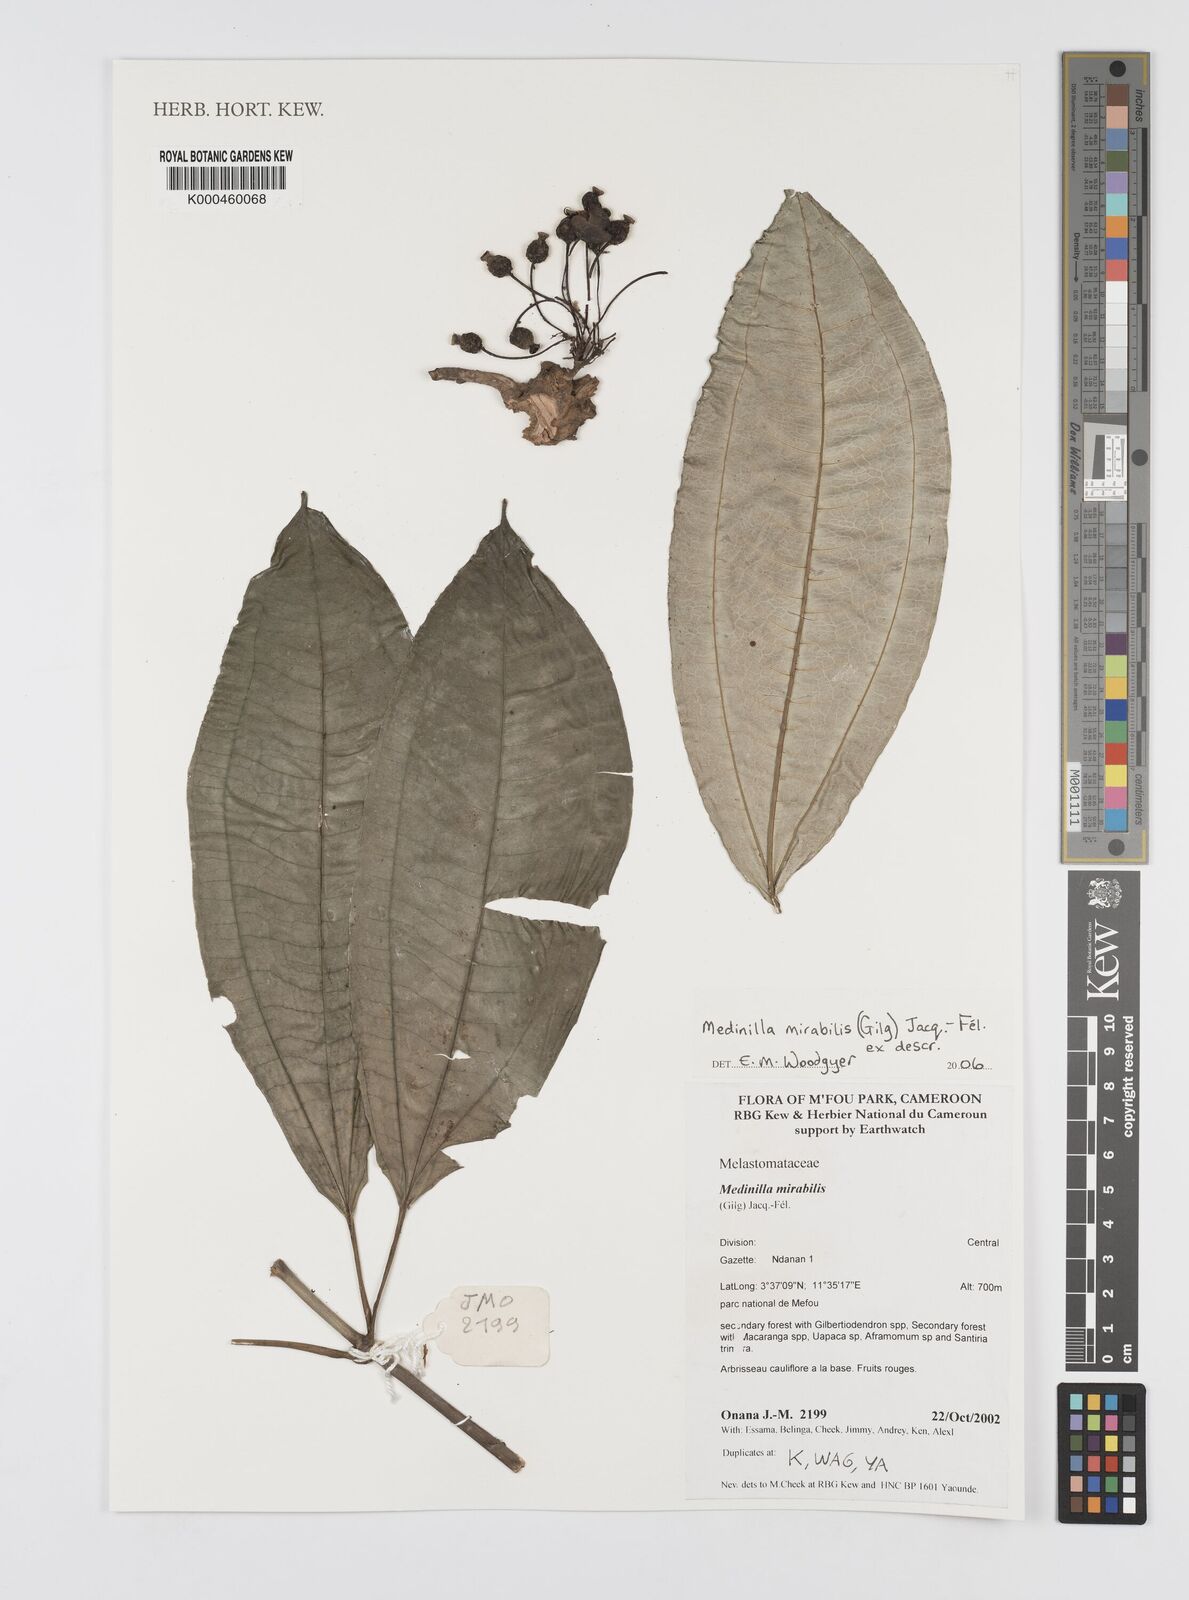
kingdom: Plantae
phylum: Tracheophyta
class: Magnoliopsida
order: Myrtales
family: Melastomataceae
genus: Medinilla
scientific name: Medinilla
